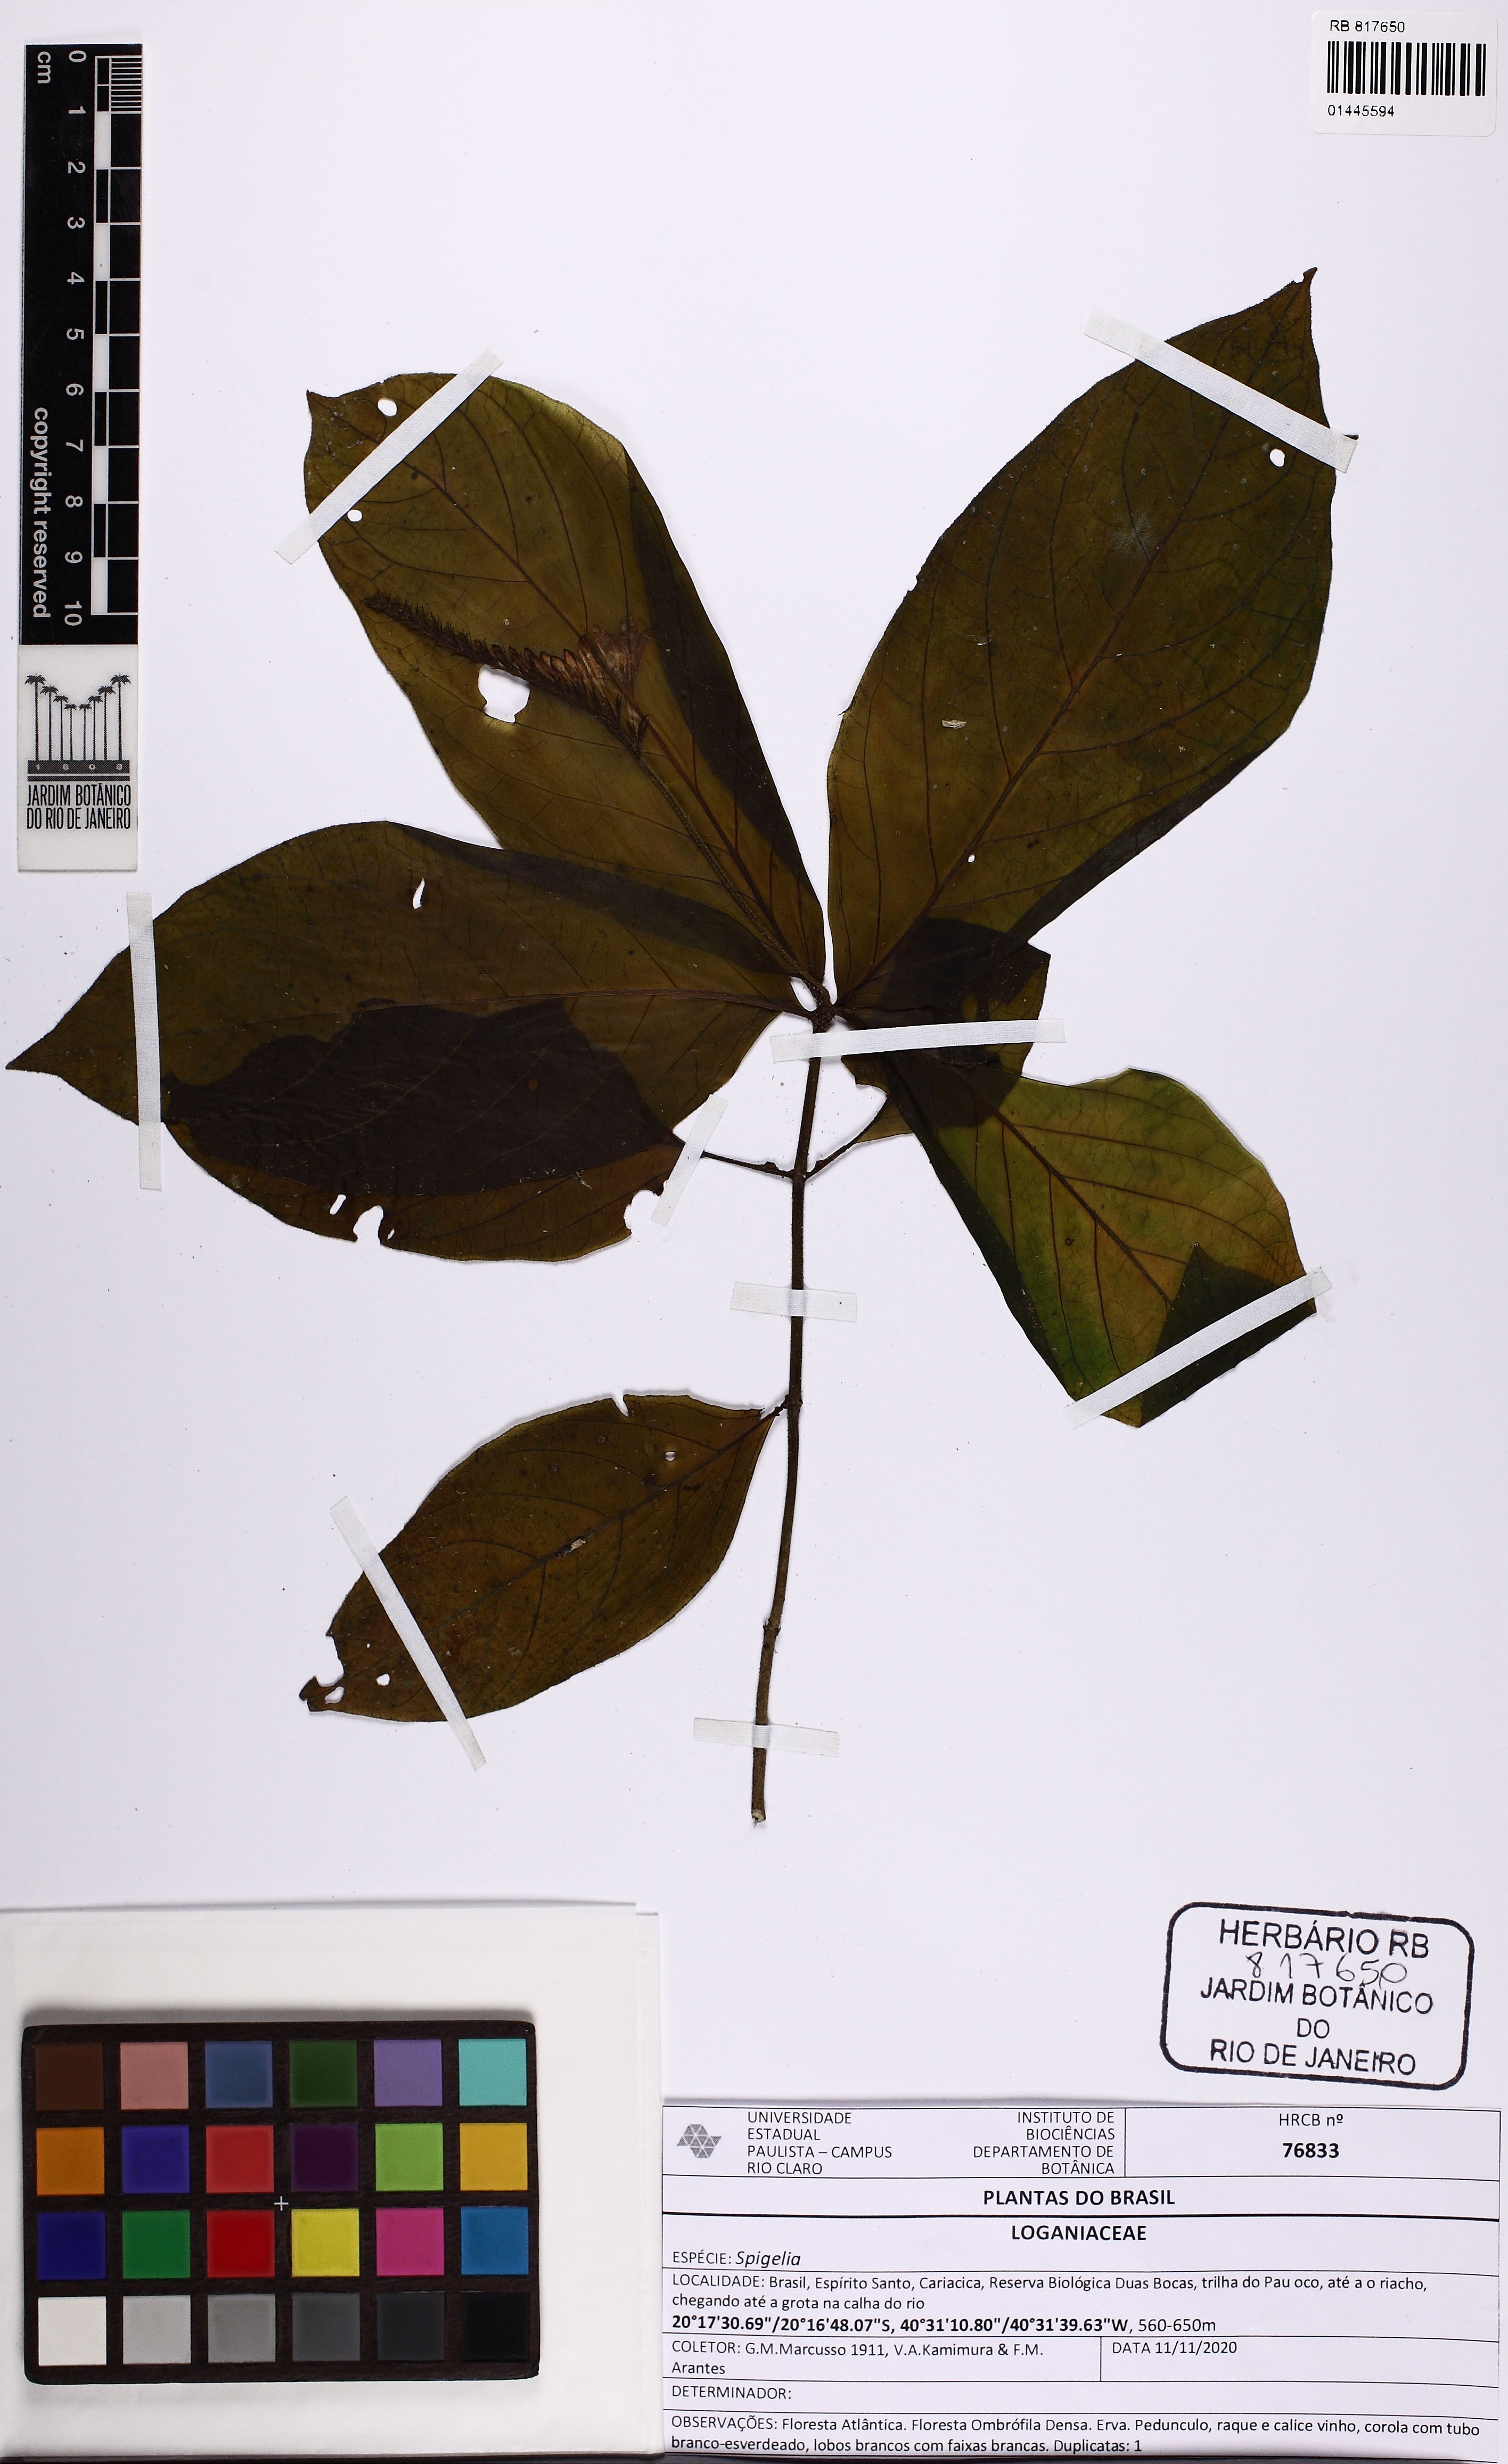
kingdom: Plantae
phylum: Tracheophyta
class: Magnoliopsida
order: Gentianales
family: Loganiaceae
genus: Spigelia
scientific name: Spigelia
